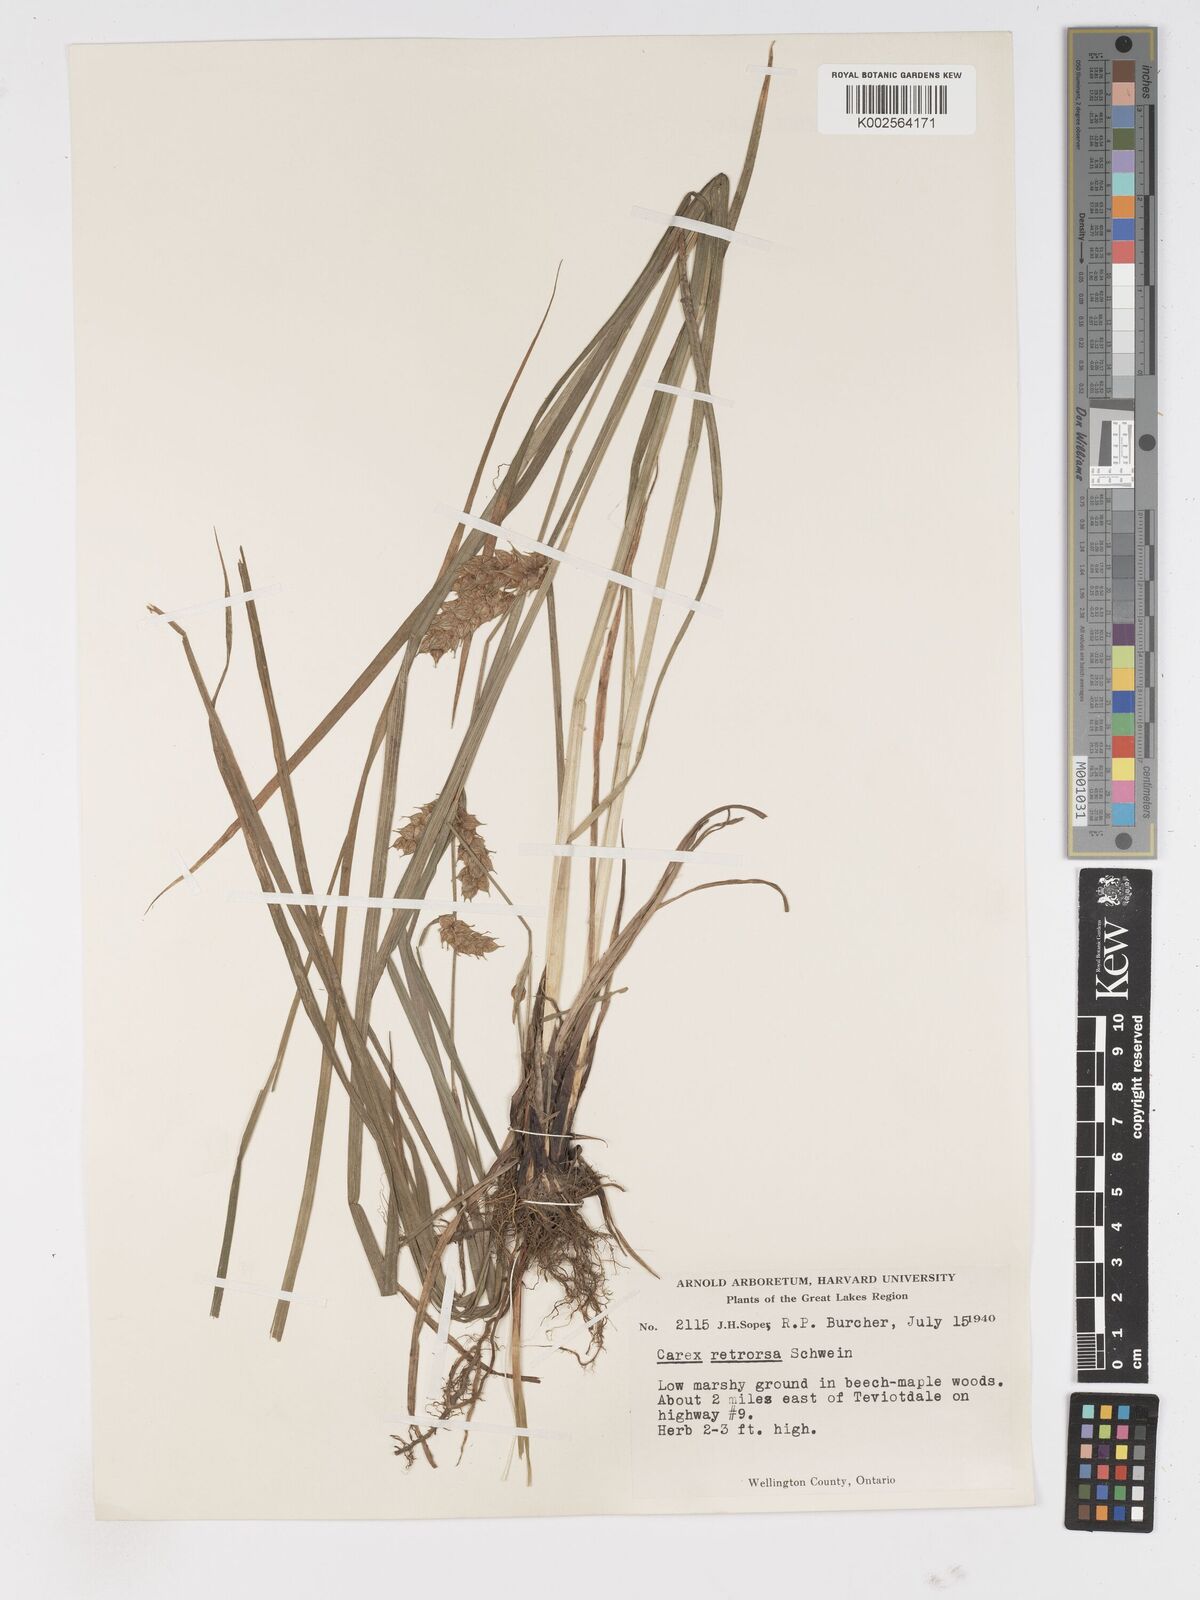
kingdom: Plantae
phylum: Tracheophyta
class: Liliopsida
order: Poales
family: Cyperaceae
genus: Carex
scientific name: Carex retrorsa
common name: Knot-sheath sedge
